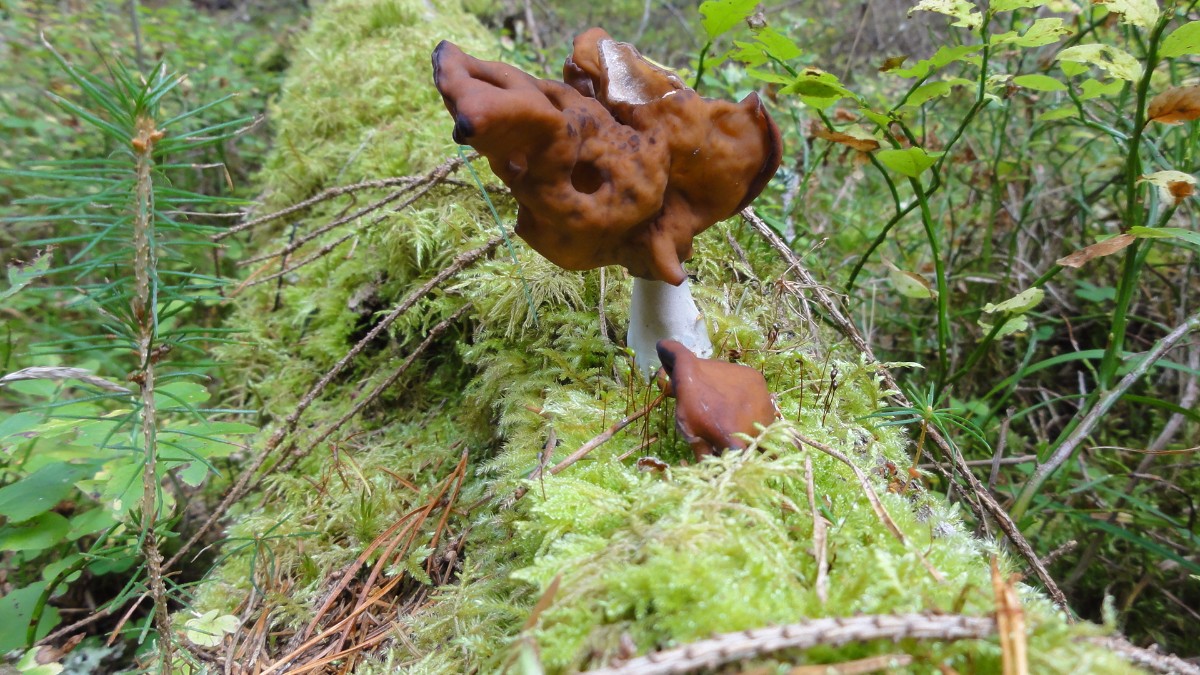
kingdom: Fungi
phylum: Ascomycota
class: Pezizomycetes
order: Pezizales
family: Discinaceae
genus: Gyromitra
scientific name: Gyromitra infula
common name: bispehue-stenmorkel
